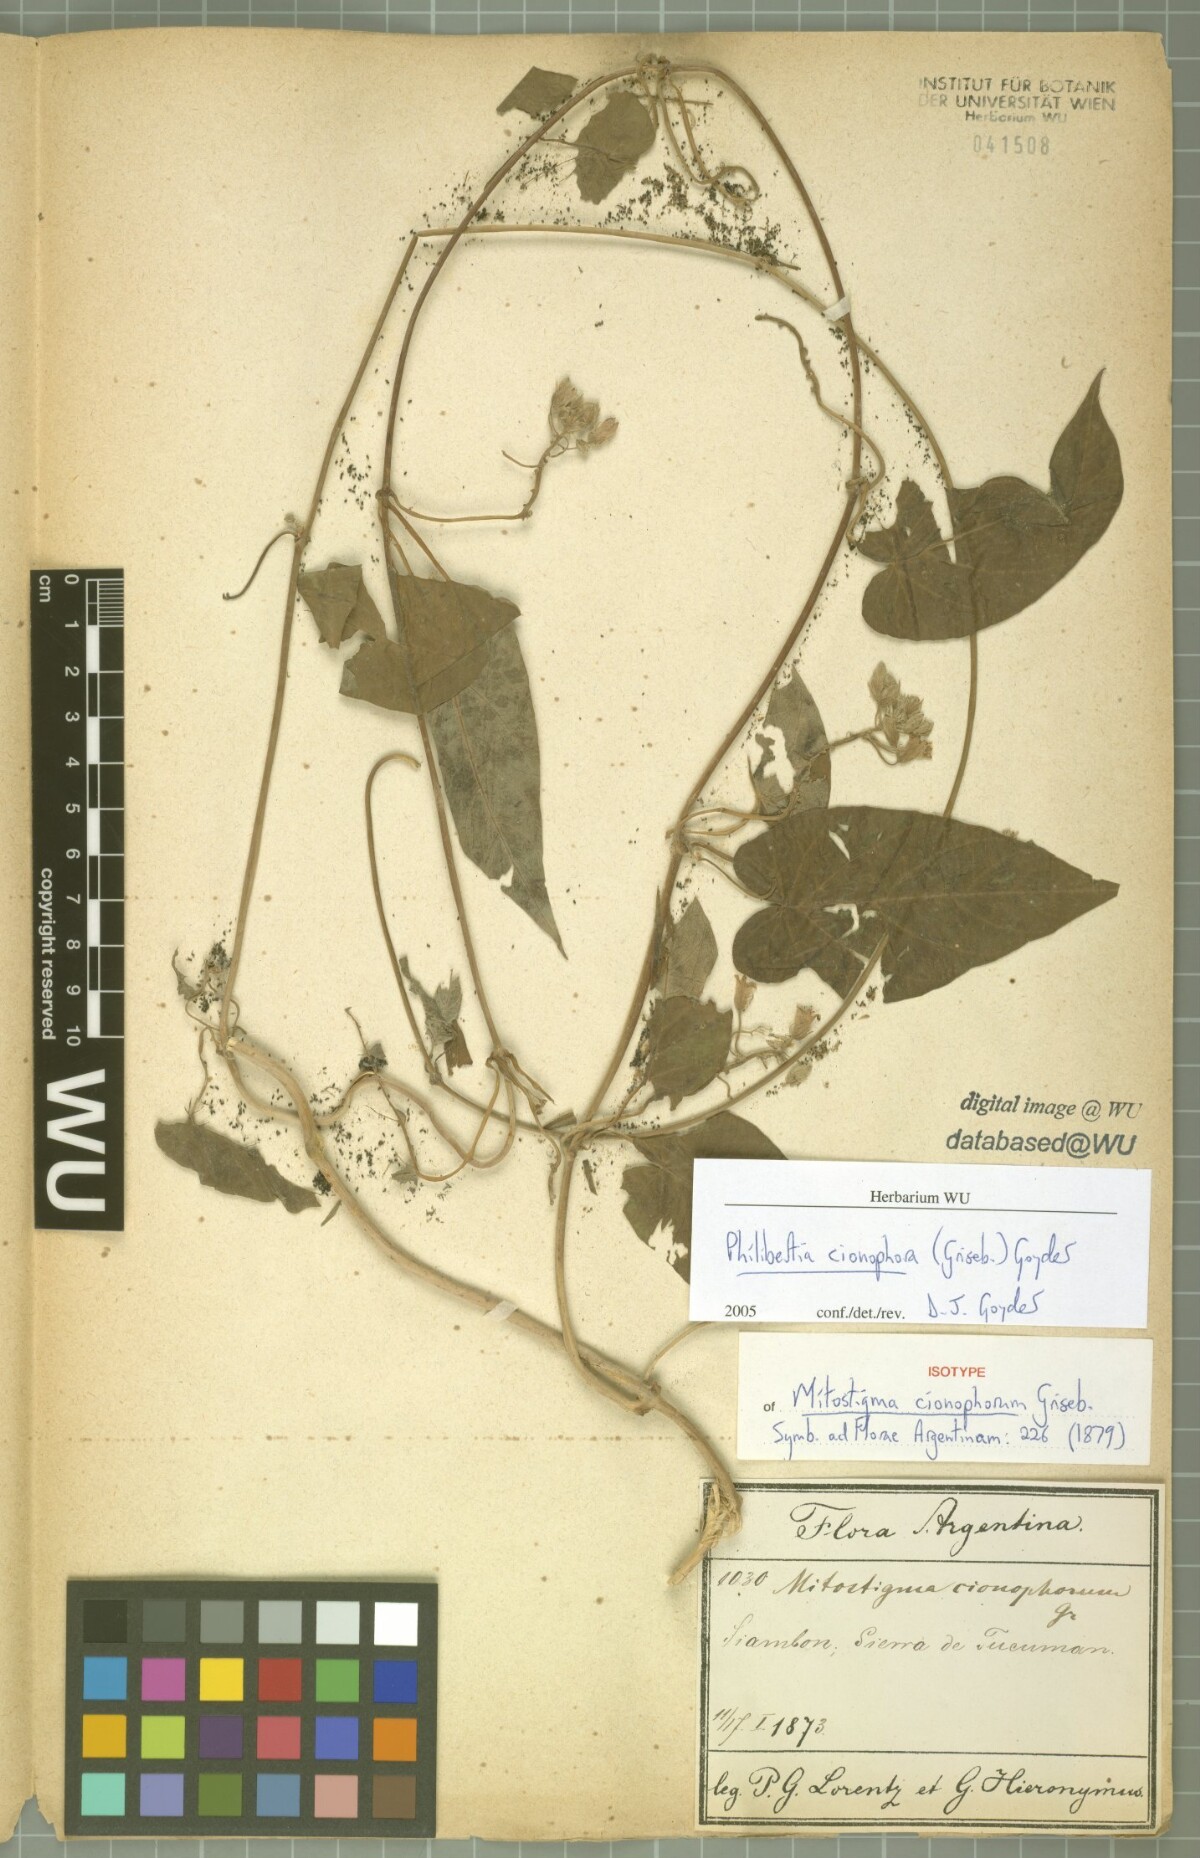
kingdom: Plantae
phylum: Tracheophyta
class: Magnoliopsida
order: Gentianales
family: Apocynaceae
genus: Philibertia
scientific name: Philibertia cionophora
